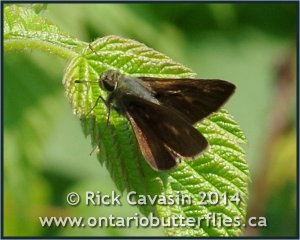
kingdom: Animalia
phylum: Arthropoda
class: Insecta
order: Lepidoptera
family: Hesperiidae
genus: Polites
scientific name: Polites egeremet
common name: Northern Broken-Dash
